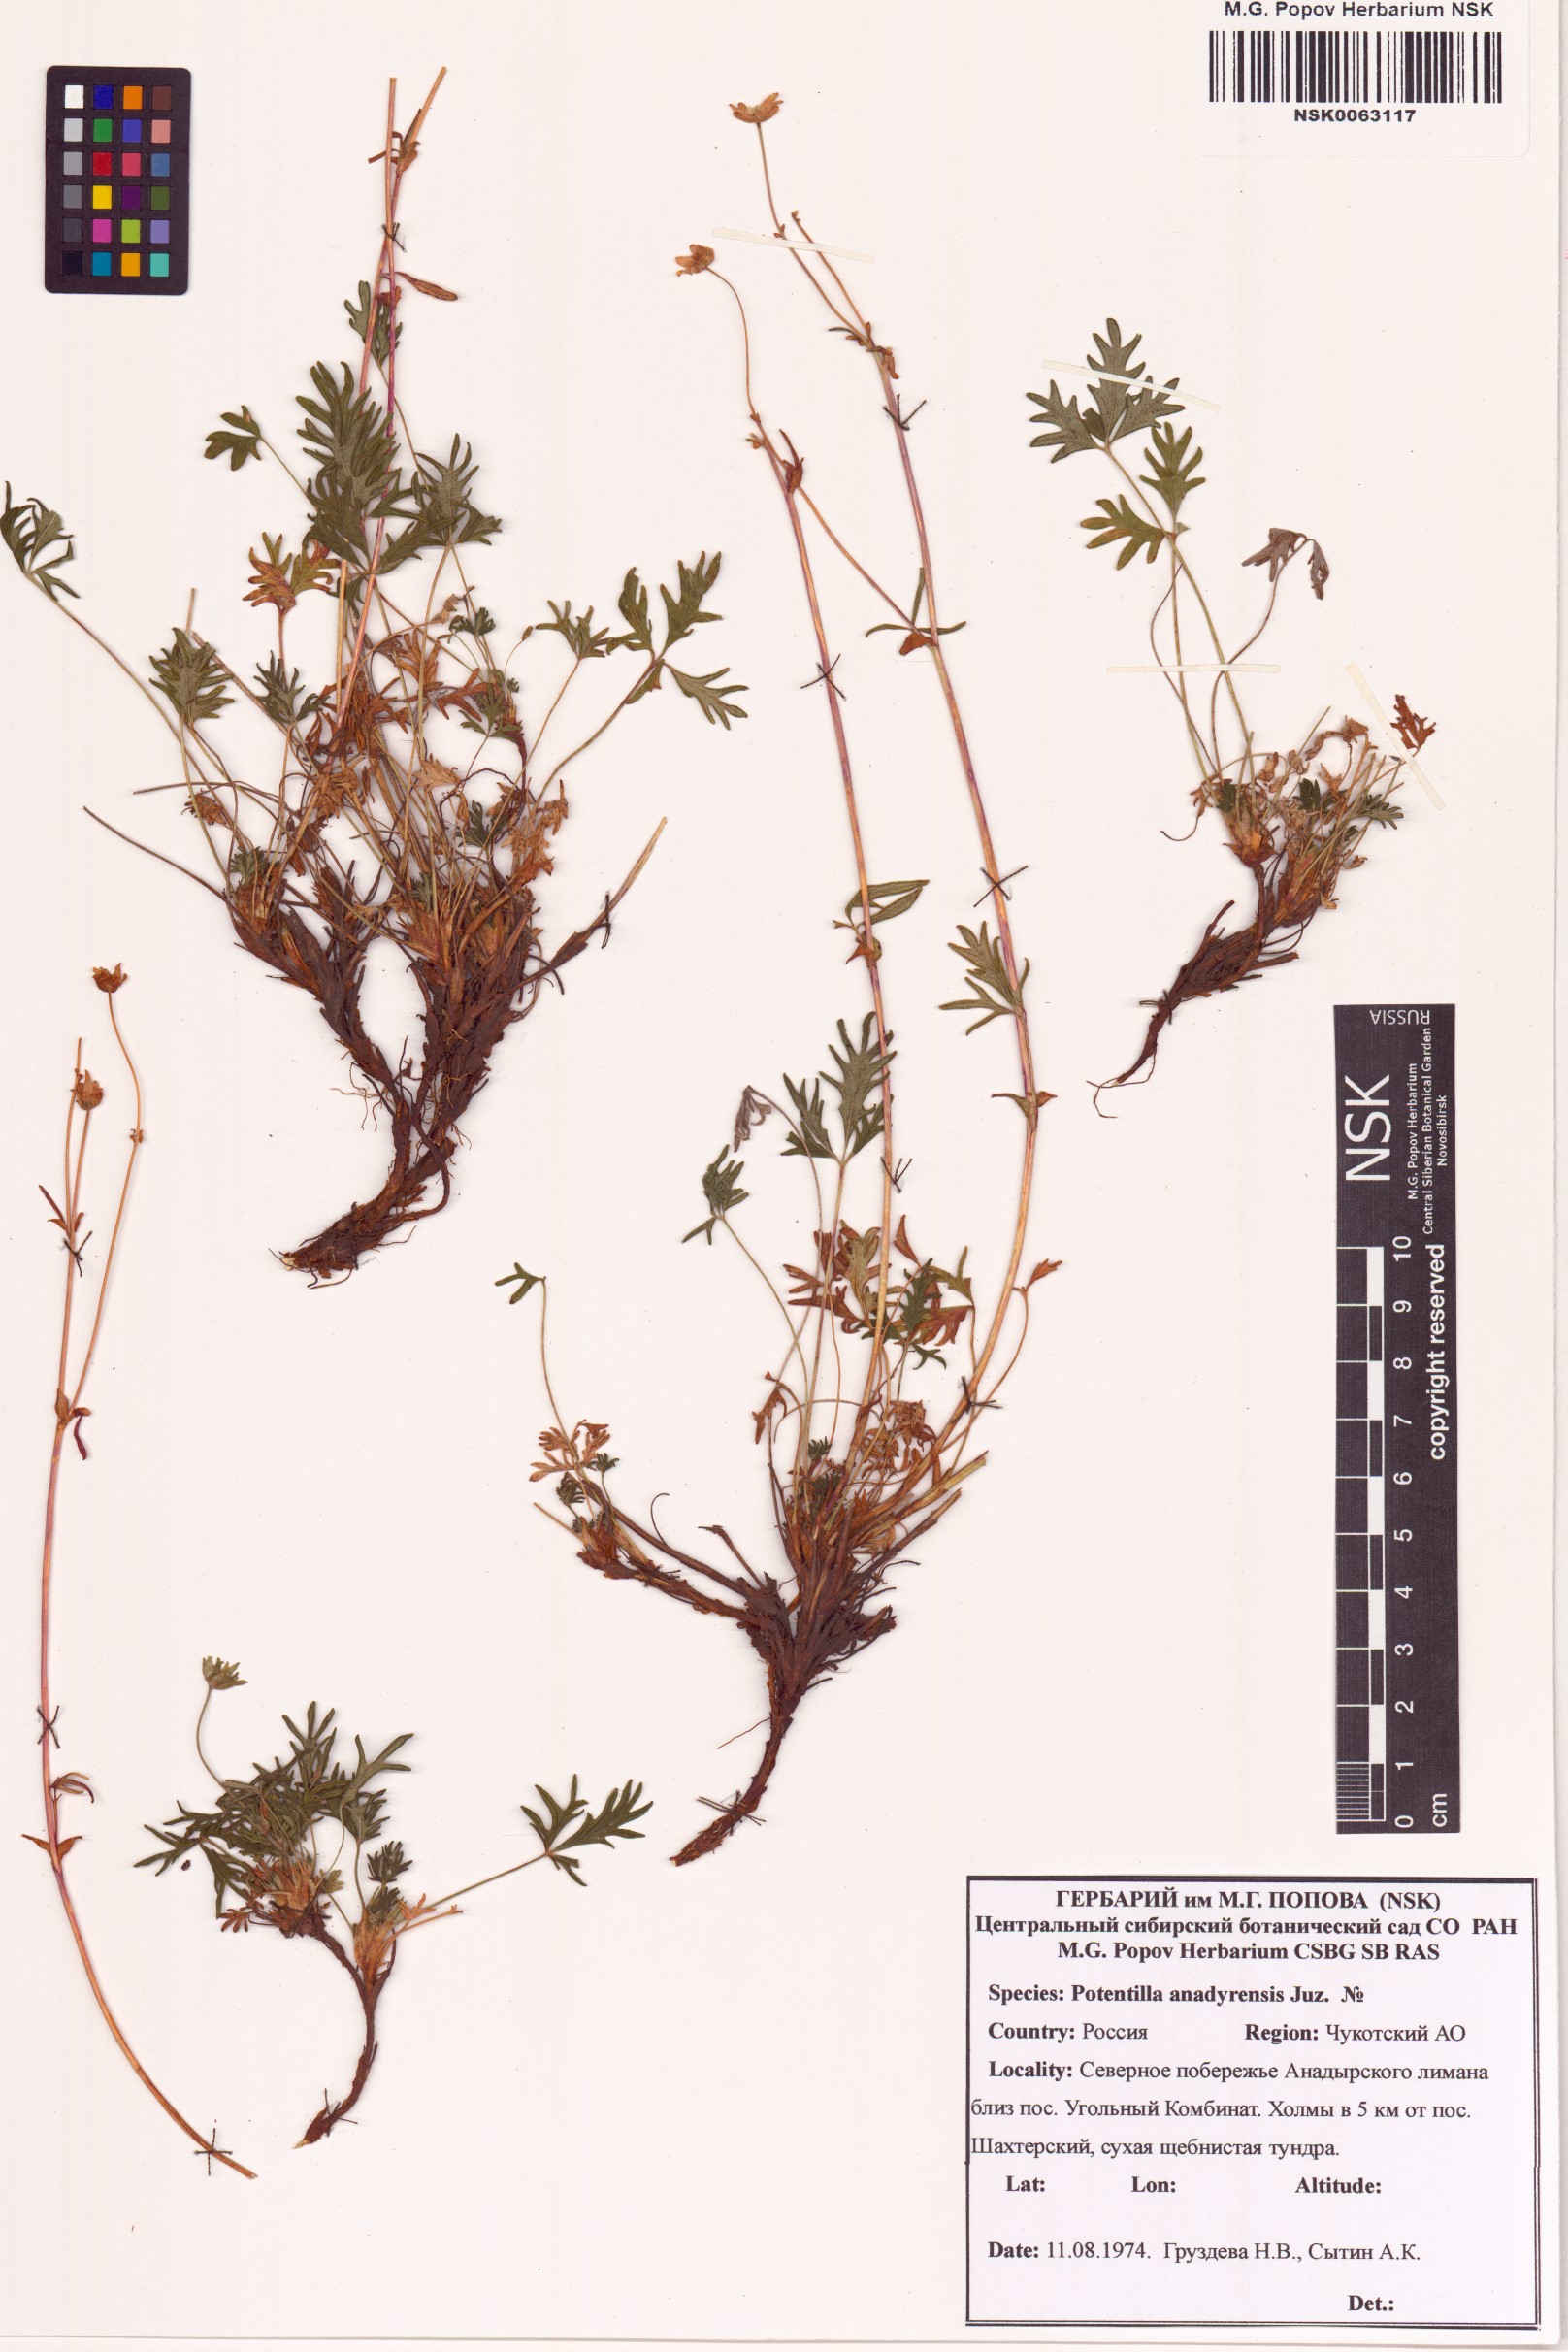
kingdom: Plantae
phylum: Tracheophyta
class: Magnoliopsida
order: Rosales
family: Rosaceae
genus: Potentilla
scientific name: Potentilla anadyrensis
